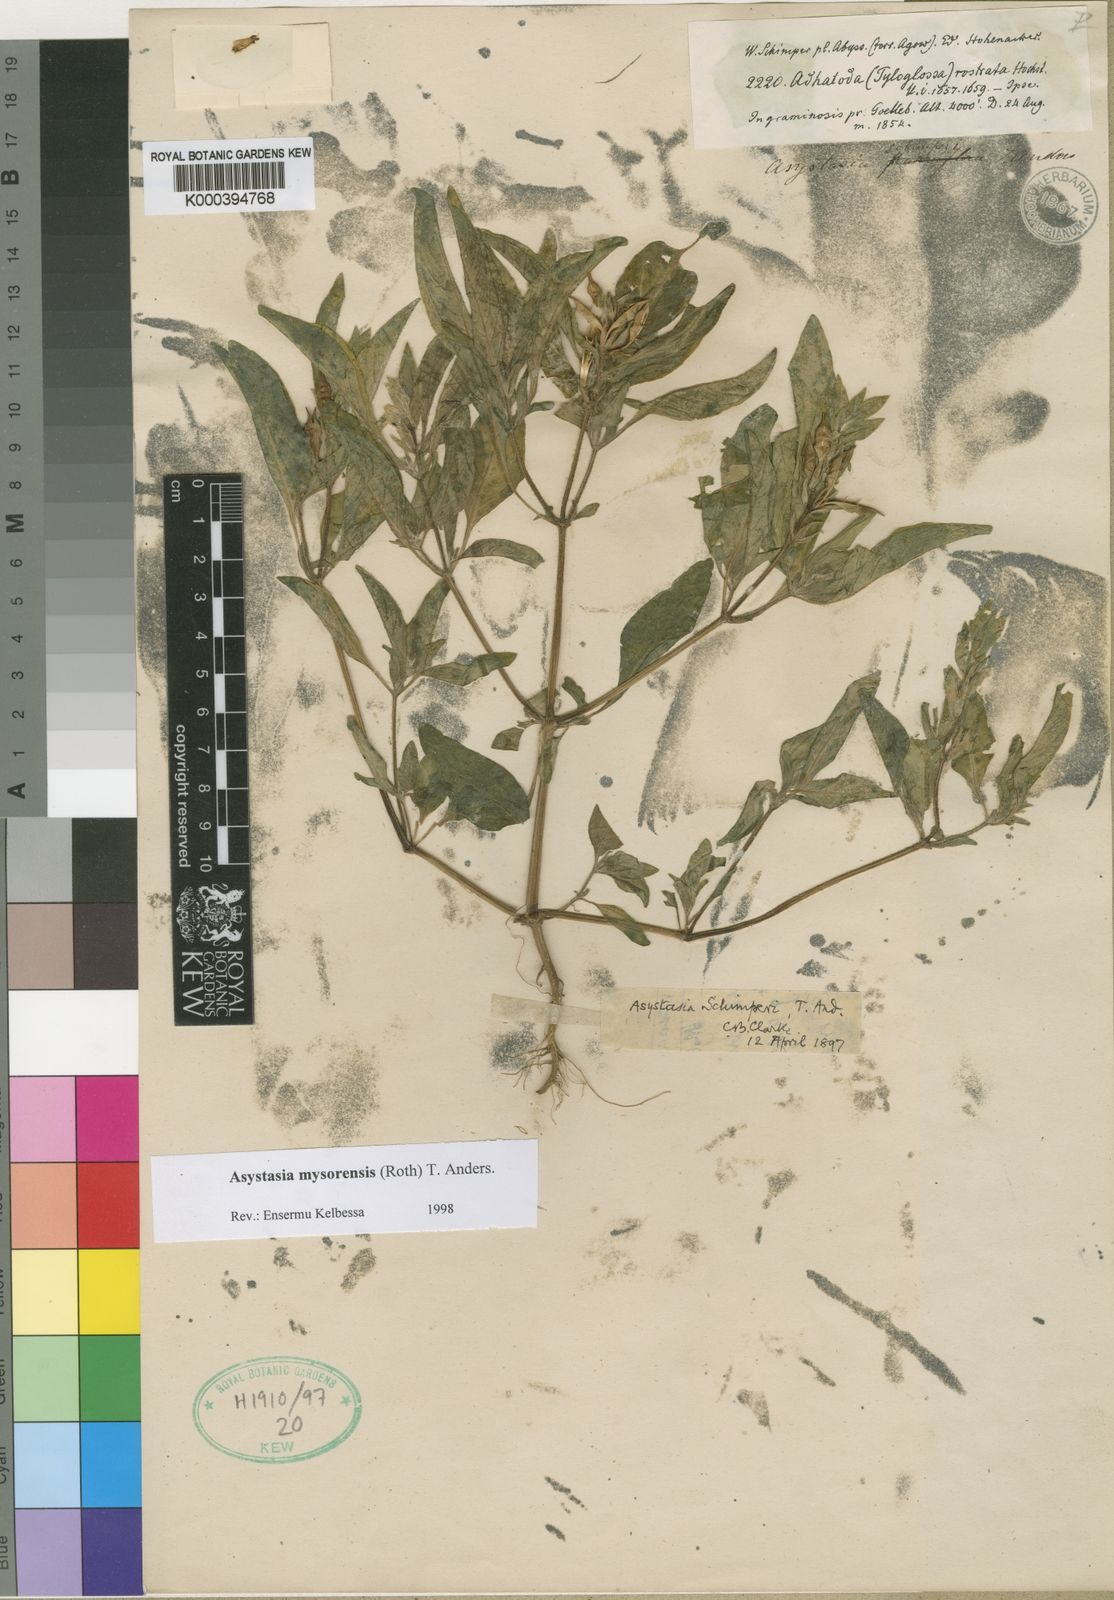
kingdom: Plantae
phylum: Tracheophyta
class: Magnoliopsida
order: Lamiales
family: Acanthaceae
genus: Asystasia
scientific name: Asystasia mysorensis
